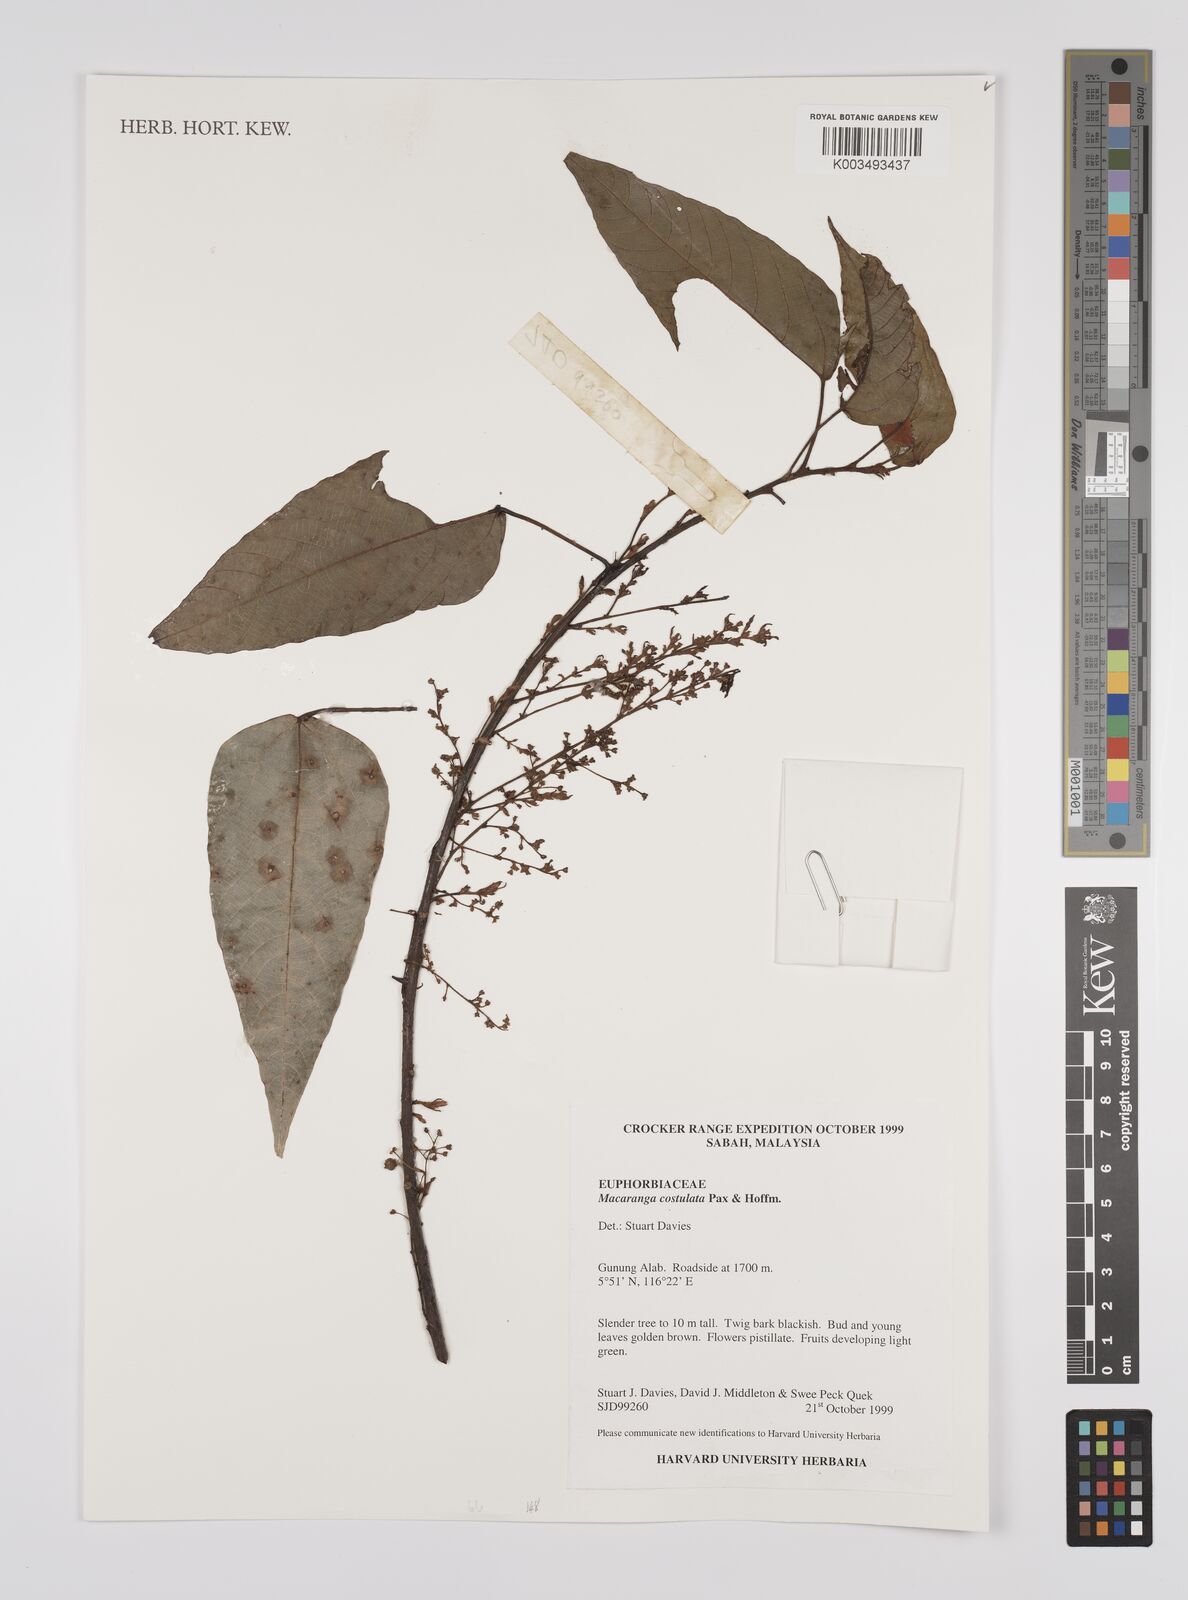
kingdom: Plantae
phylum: Tracheophyta
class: Magnoliopsida
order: Malpighiales
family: Euphorbiaceae
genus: Macaranga
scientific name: Macaranga costulata
